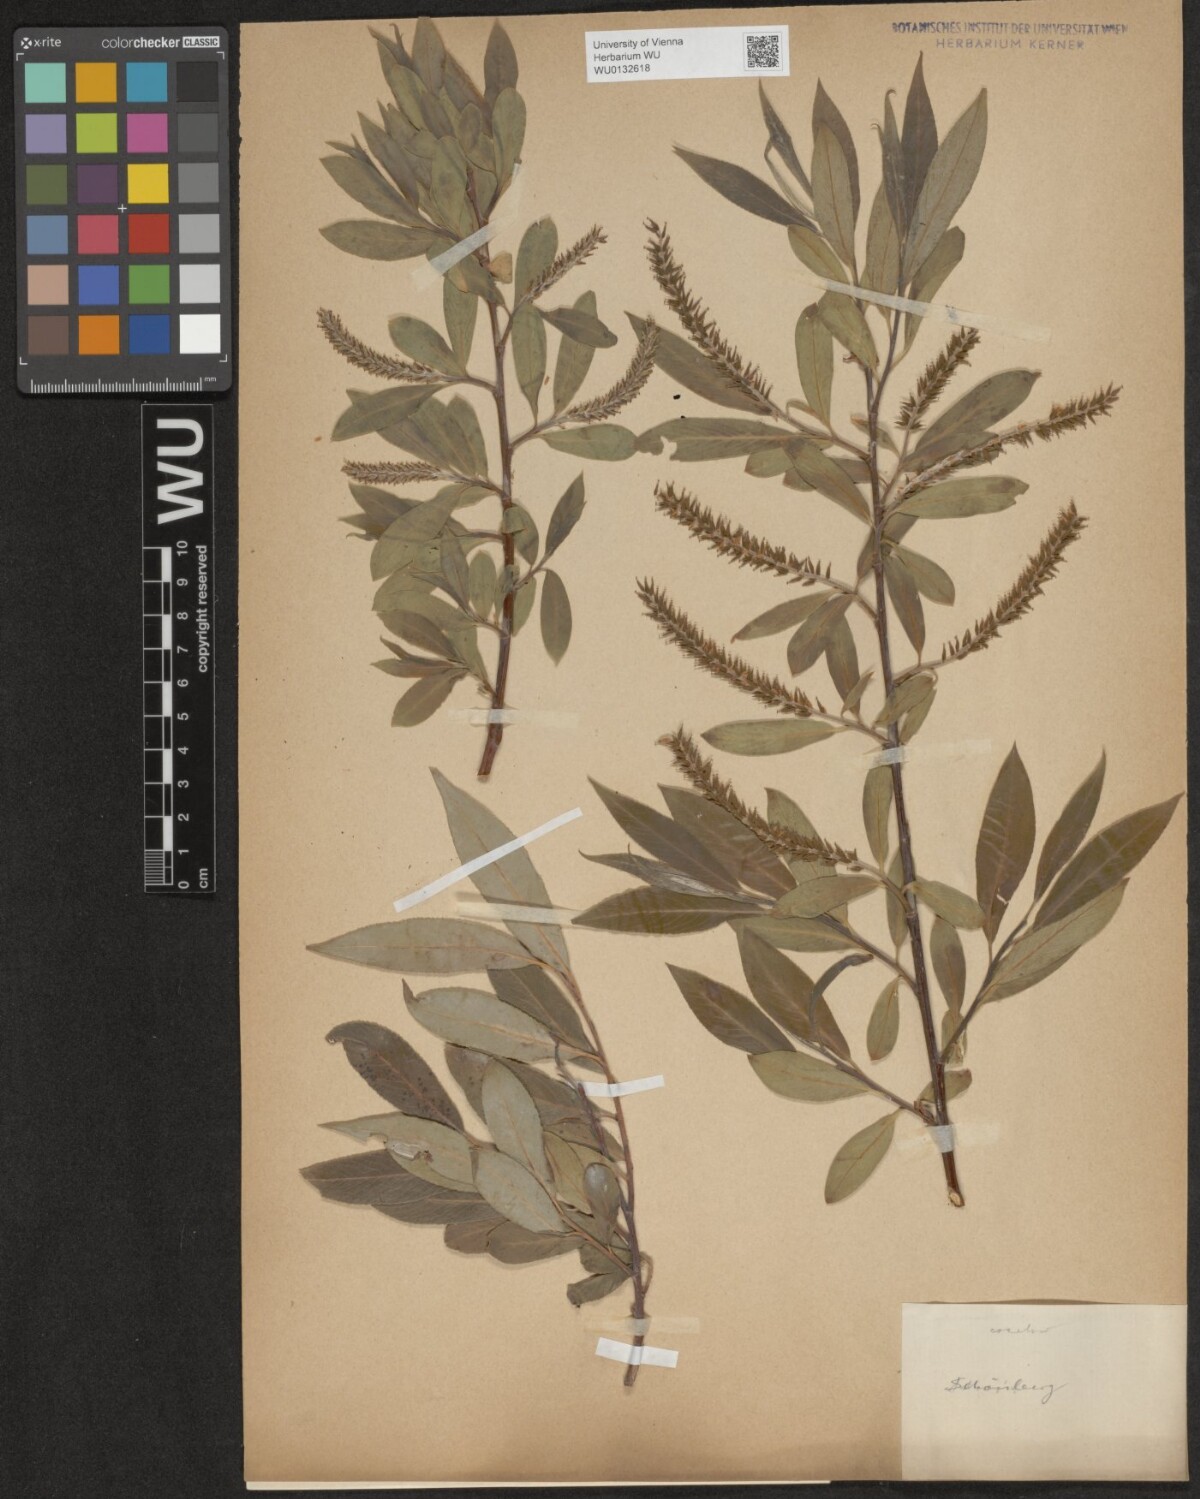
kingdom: Plantae
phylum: Tracheophyta
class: Magnoliopsida
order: Malpighiales
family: Salicaceae
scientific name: Salicaceae
